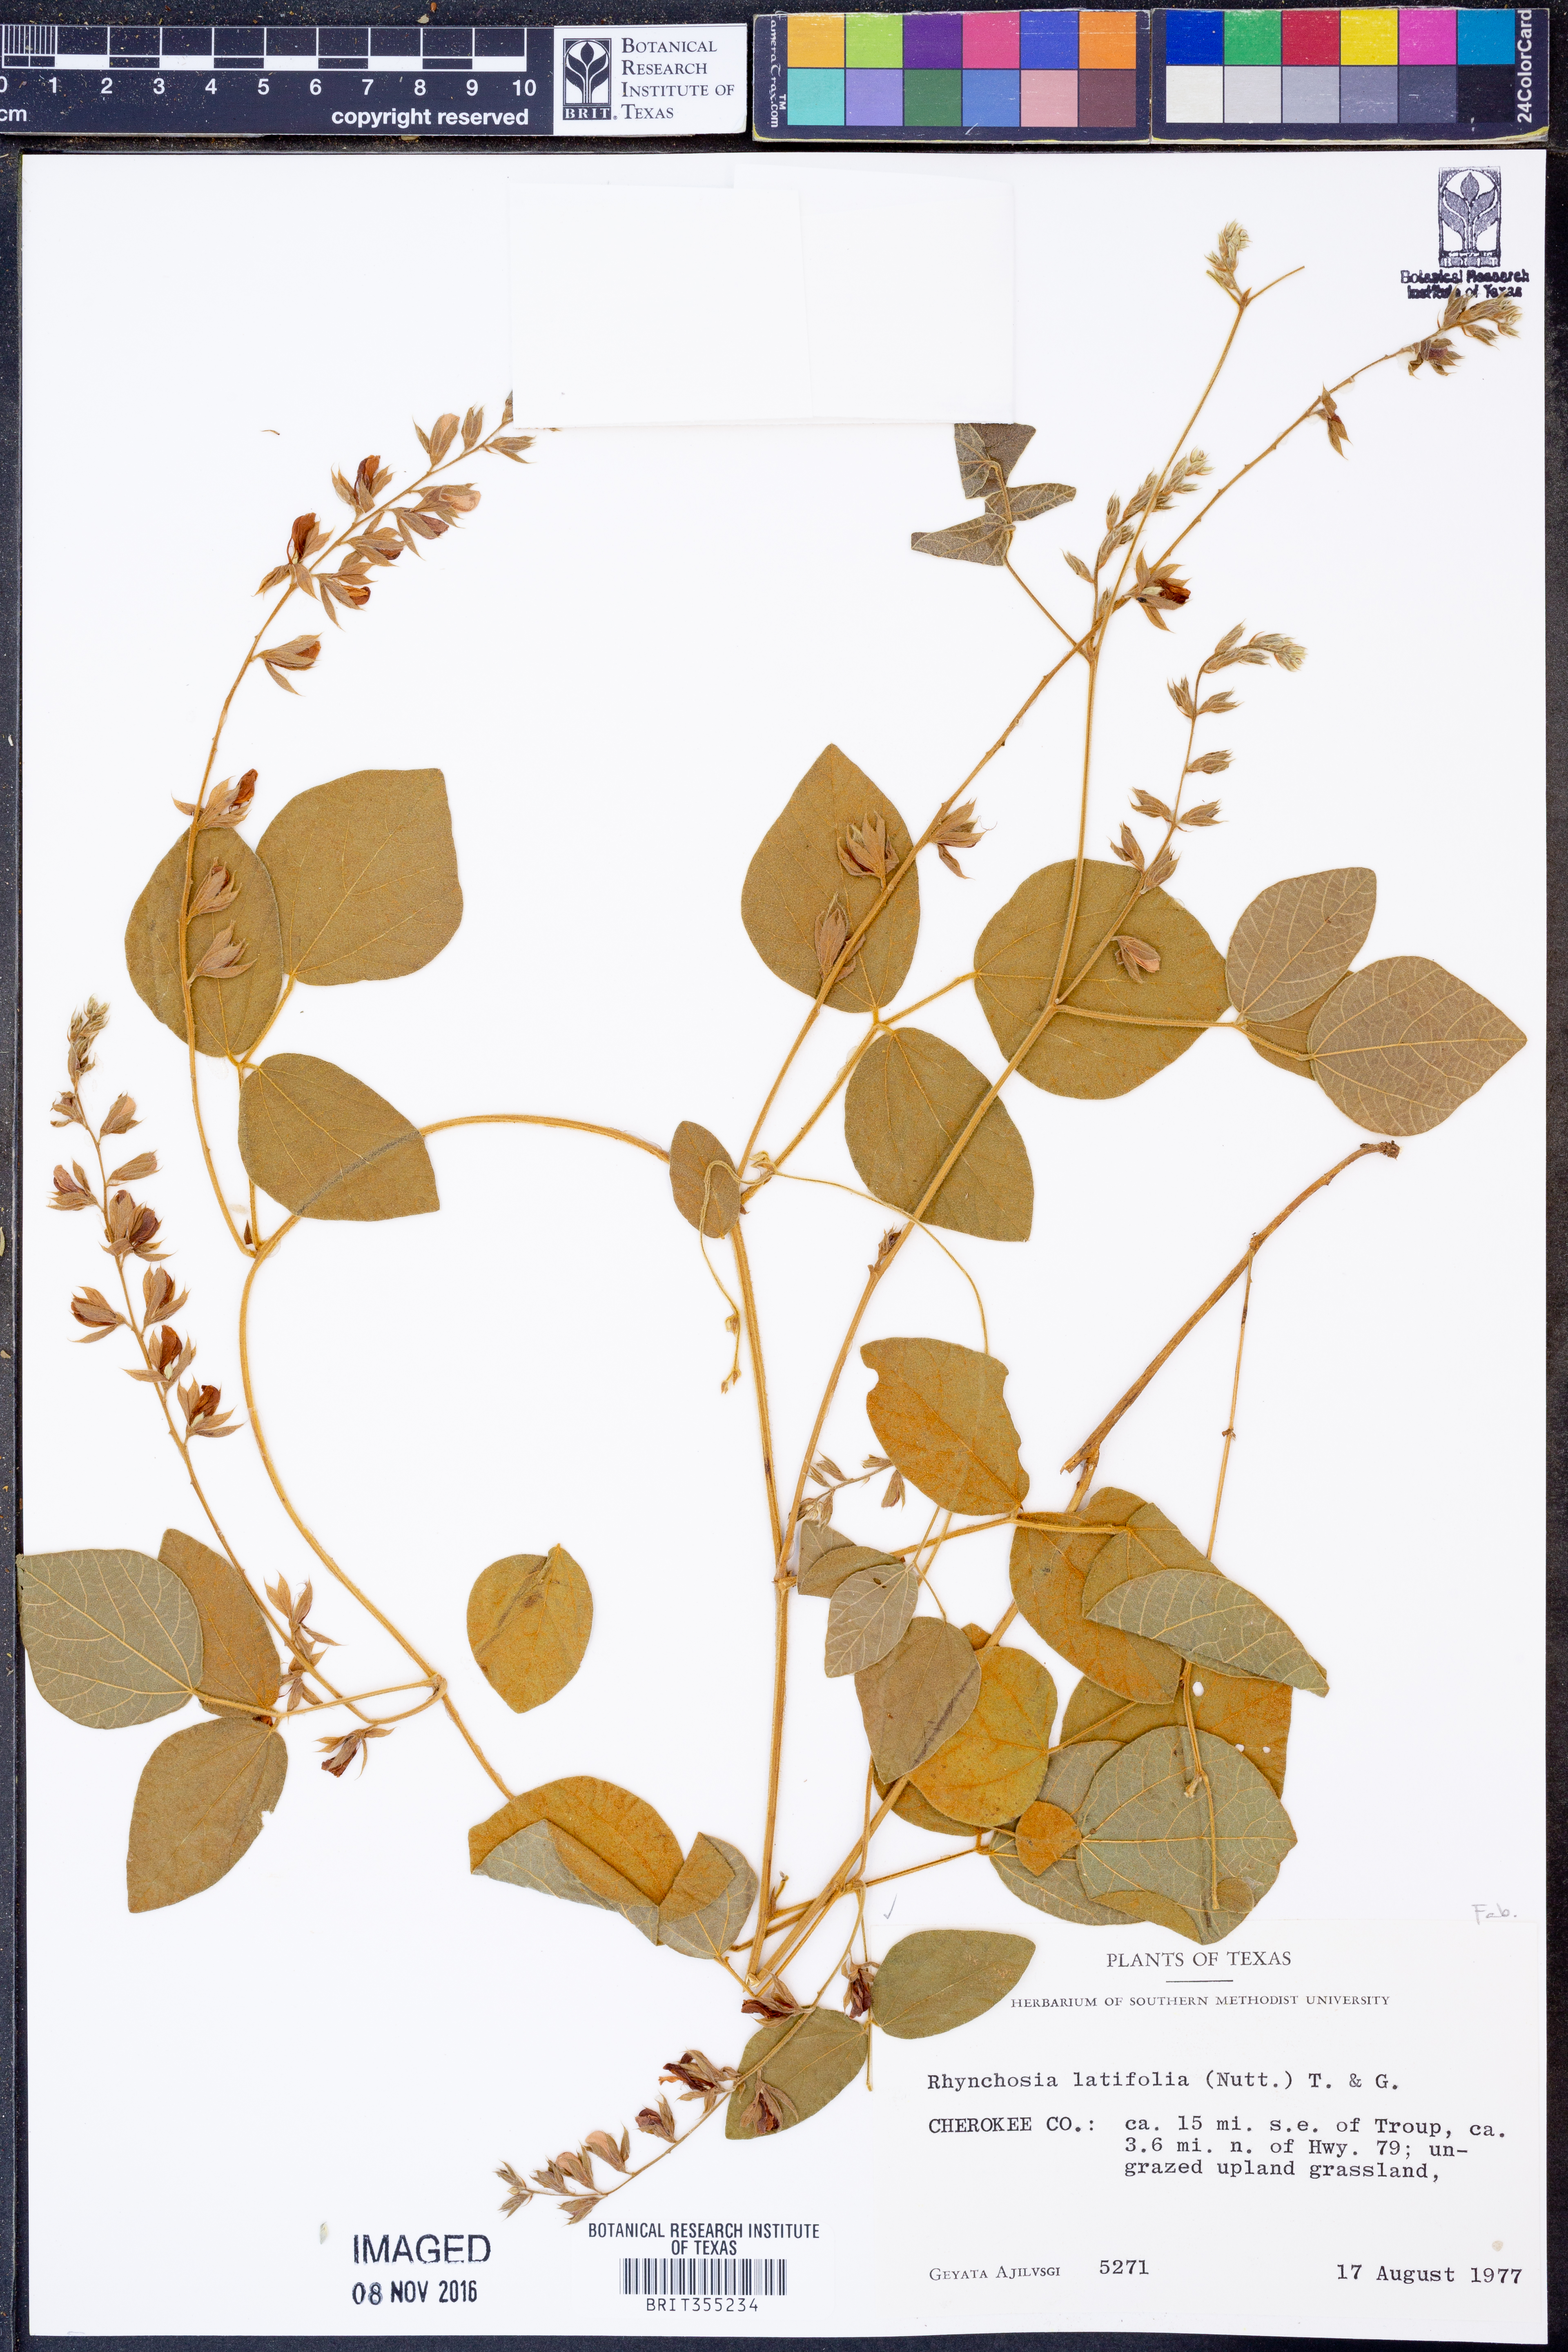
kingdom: Plantae
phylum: Tracheophyta
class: Magnoliopsida
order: Fabales
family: Fabaceae
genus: Rhynchosia
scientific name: Rhynchosia latifolia
